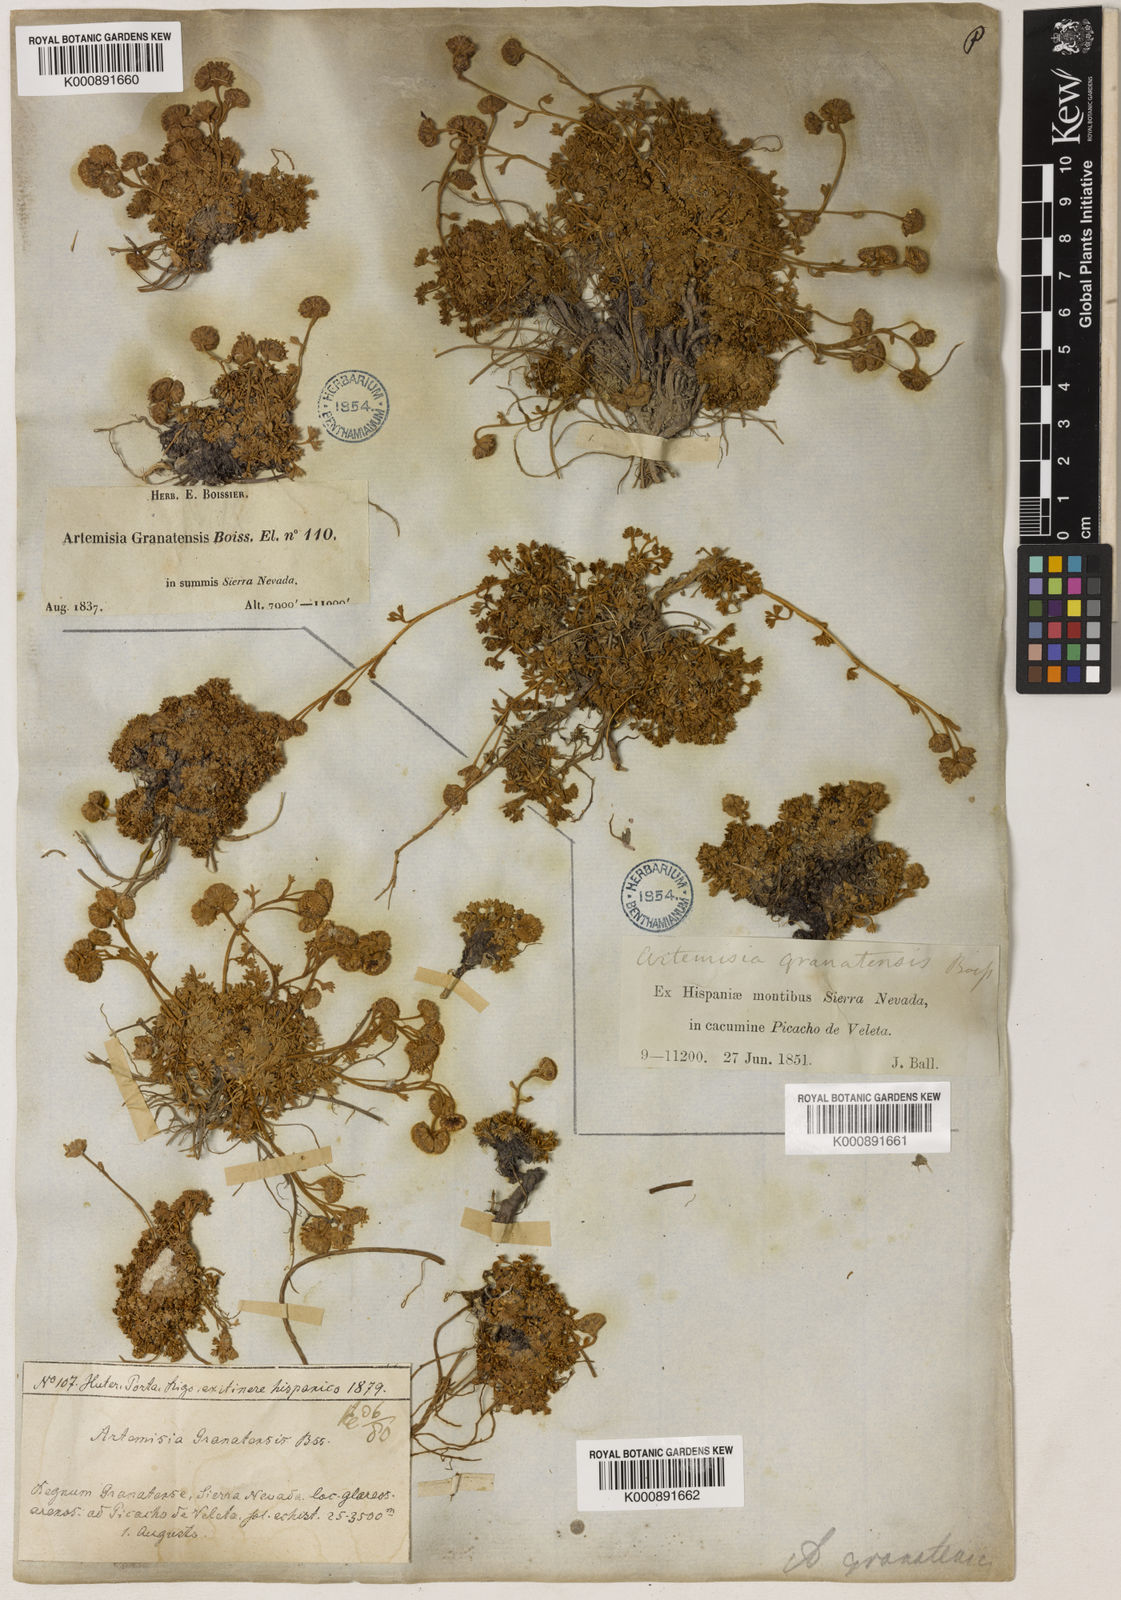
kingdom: Plantae
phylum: Tracheophyta
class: Magnoliopsida
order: Asterales
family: Asteraceae
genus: Artemisia
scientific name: Artemisia granatensis
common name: Royal chamomile
